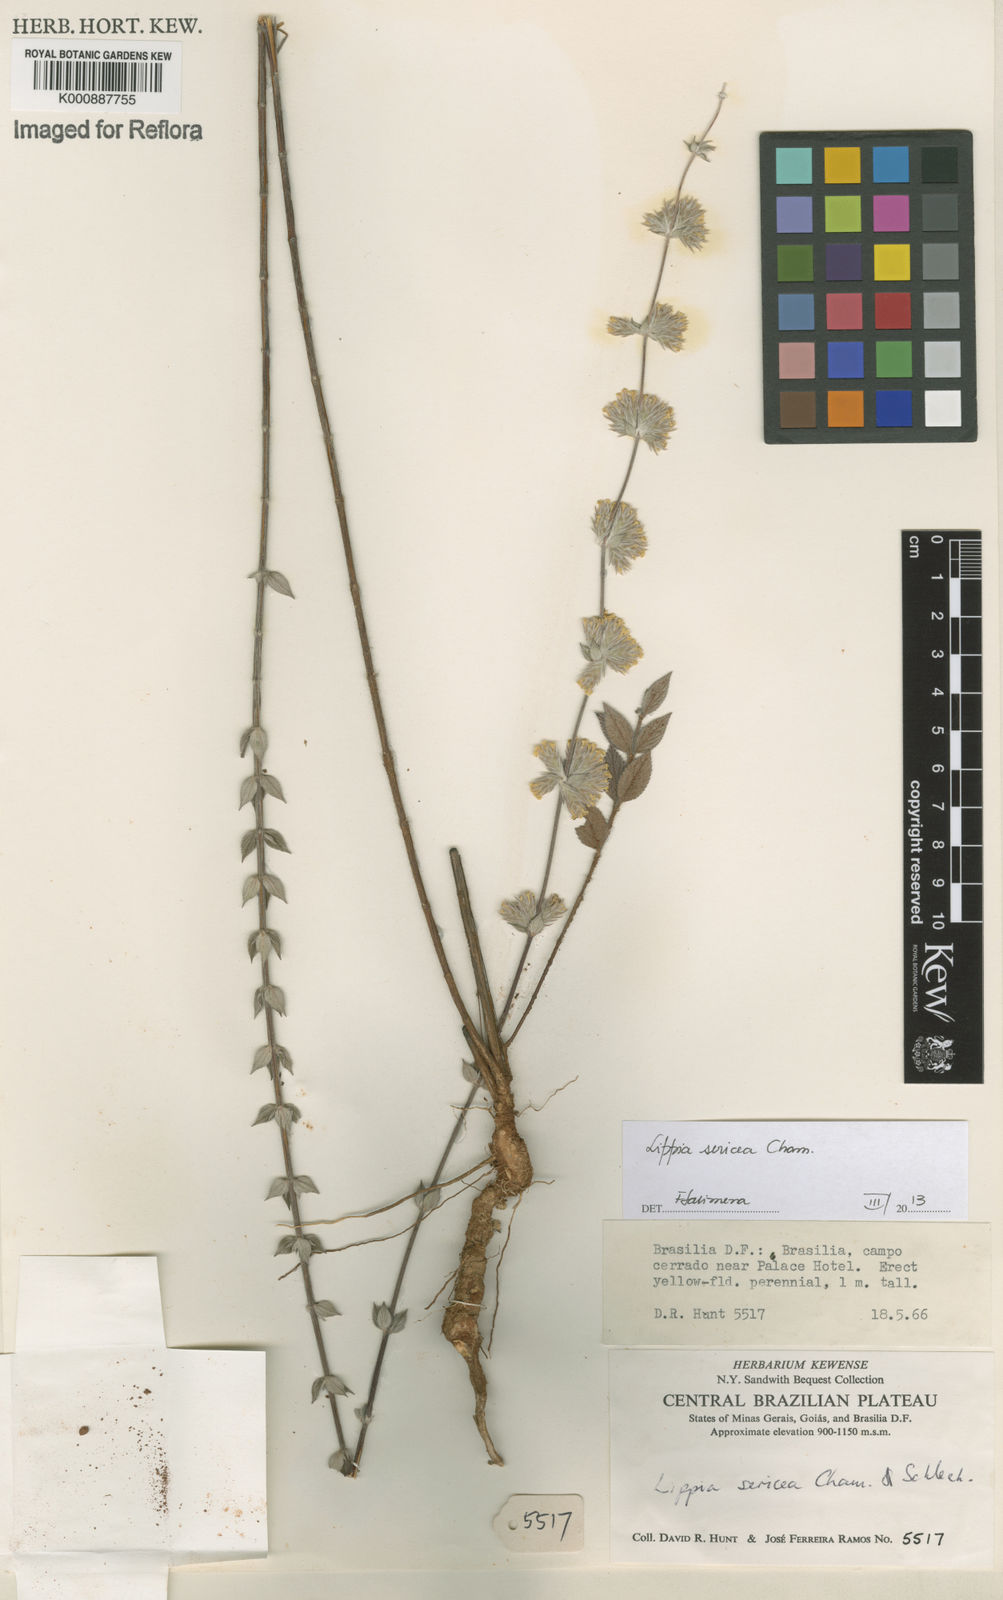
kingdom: Plantae
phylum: Tracheophyta
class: Magnoliopsida
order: Lamiales
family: Verbenaceae
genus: Lippia
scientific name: Lippia sericea
